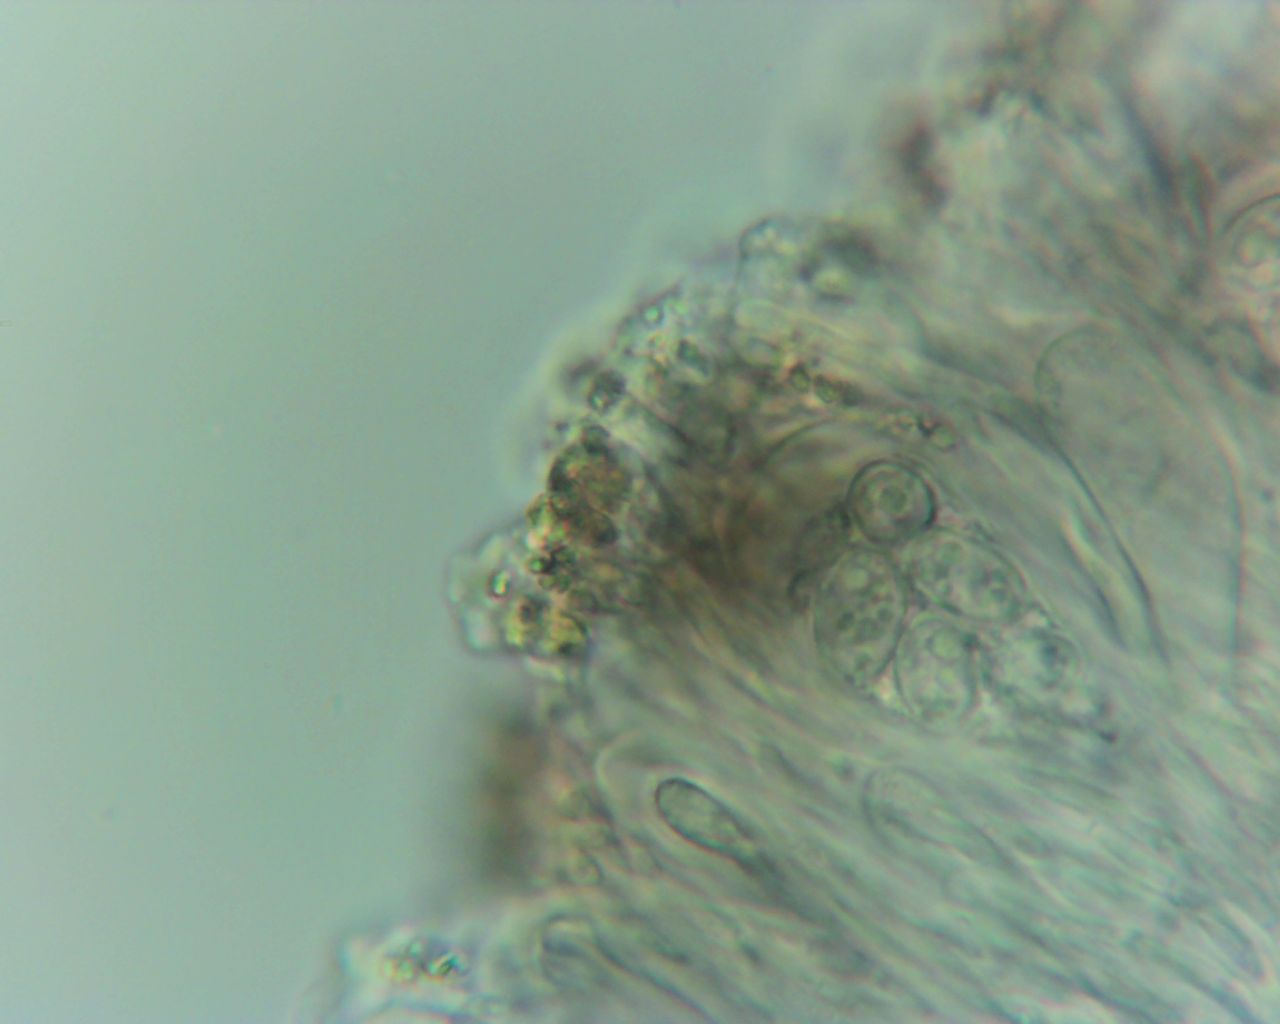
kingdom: Fungi
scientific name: Fungi
